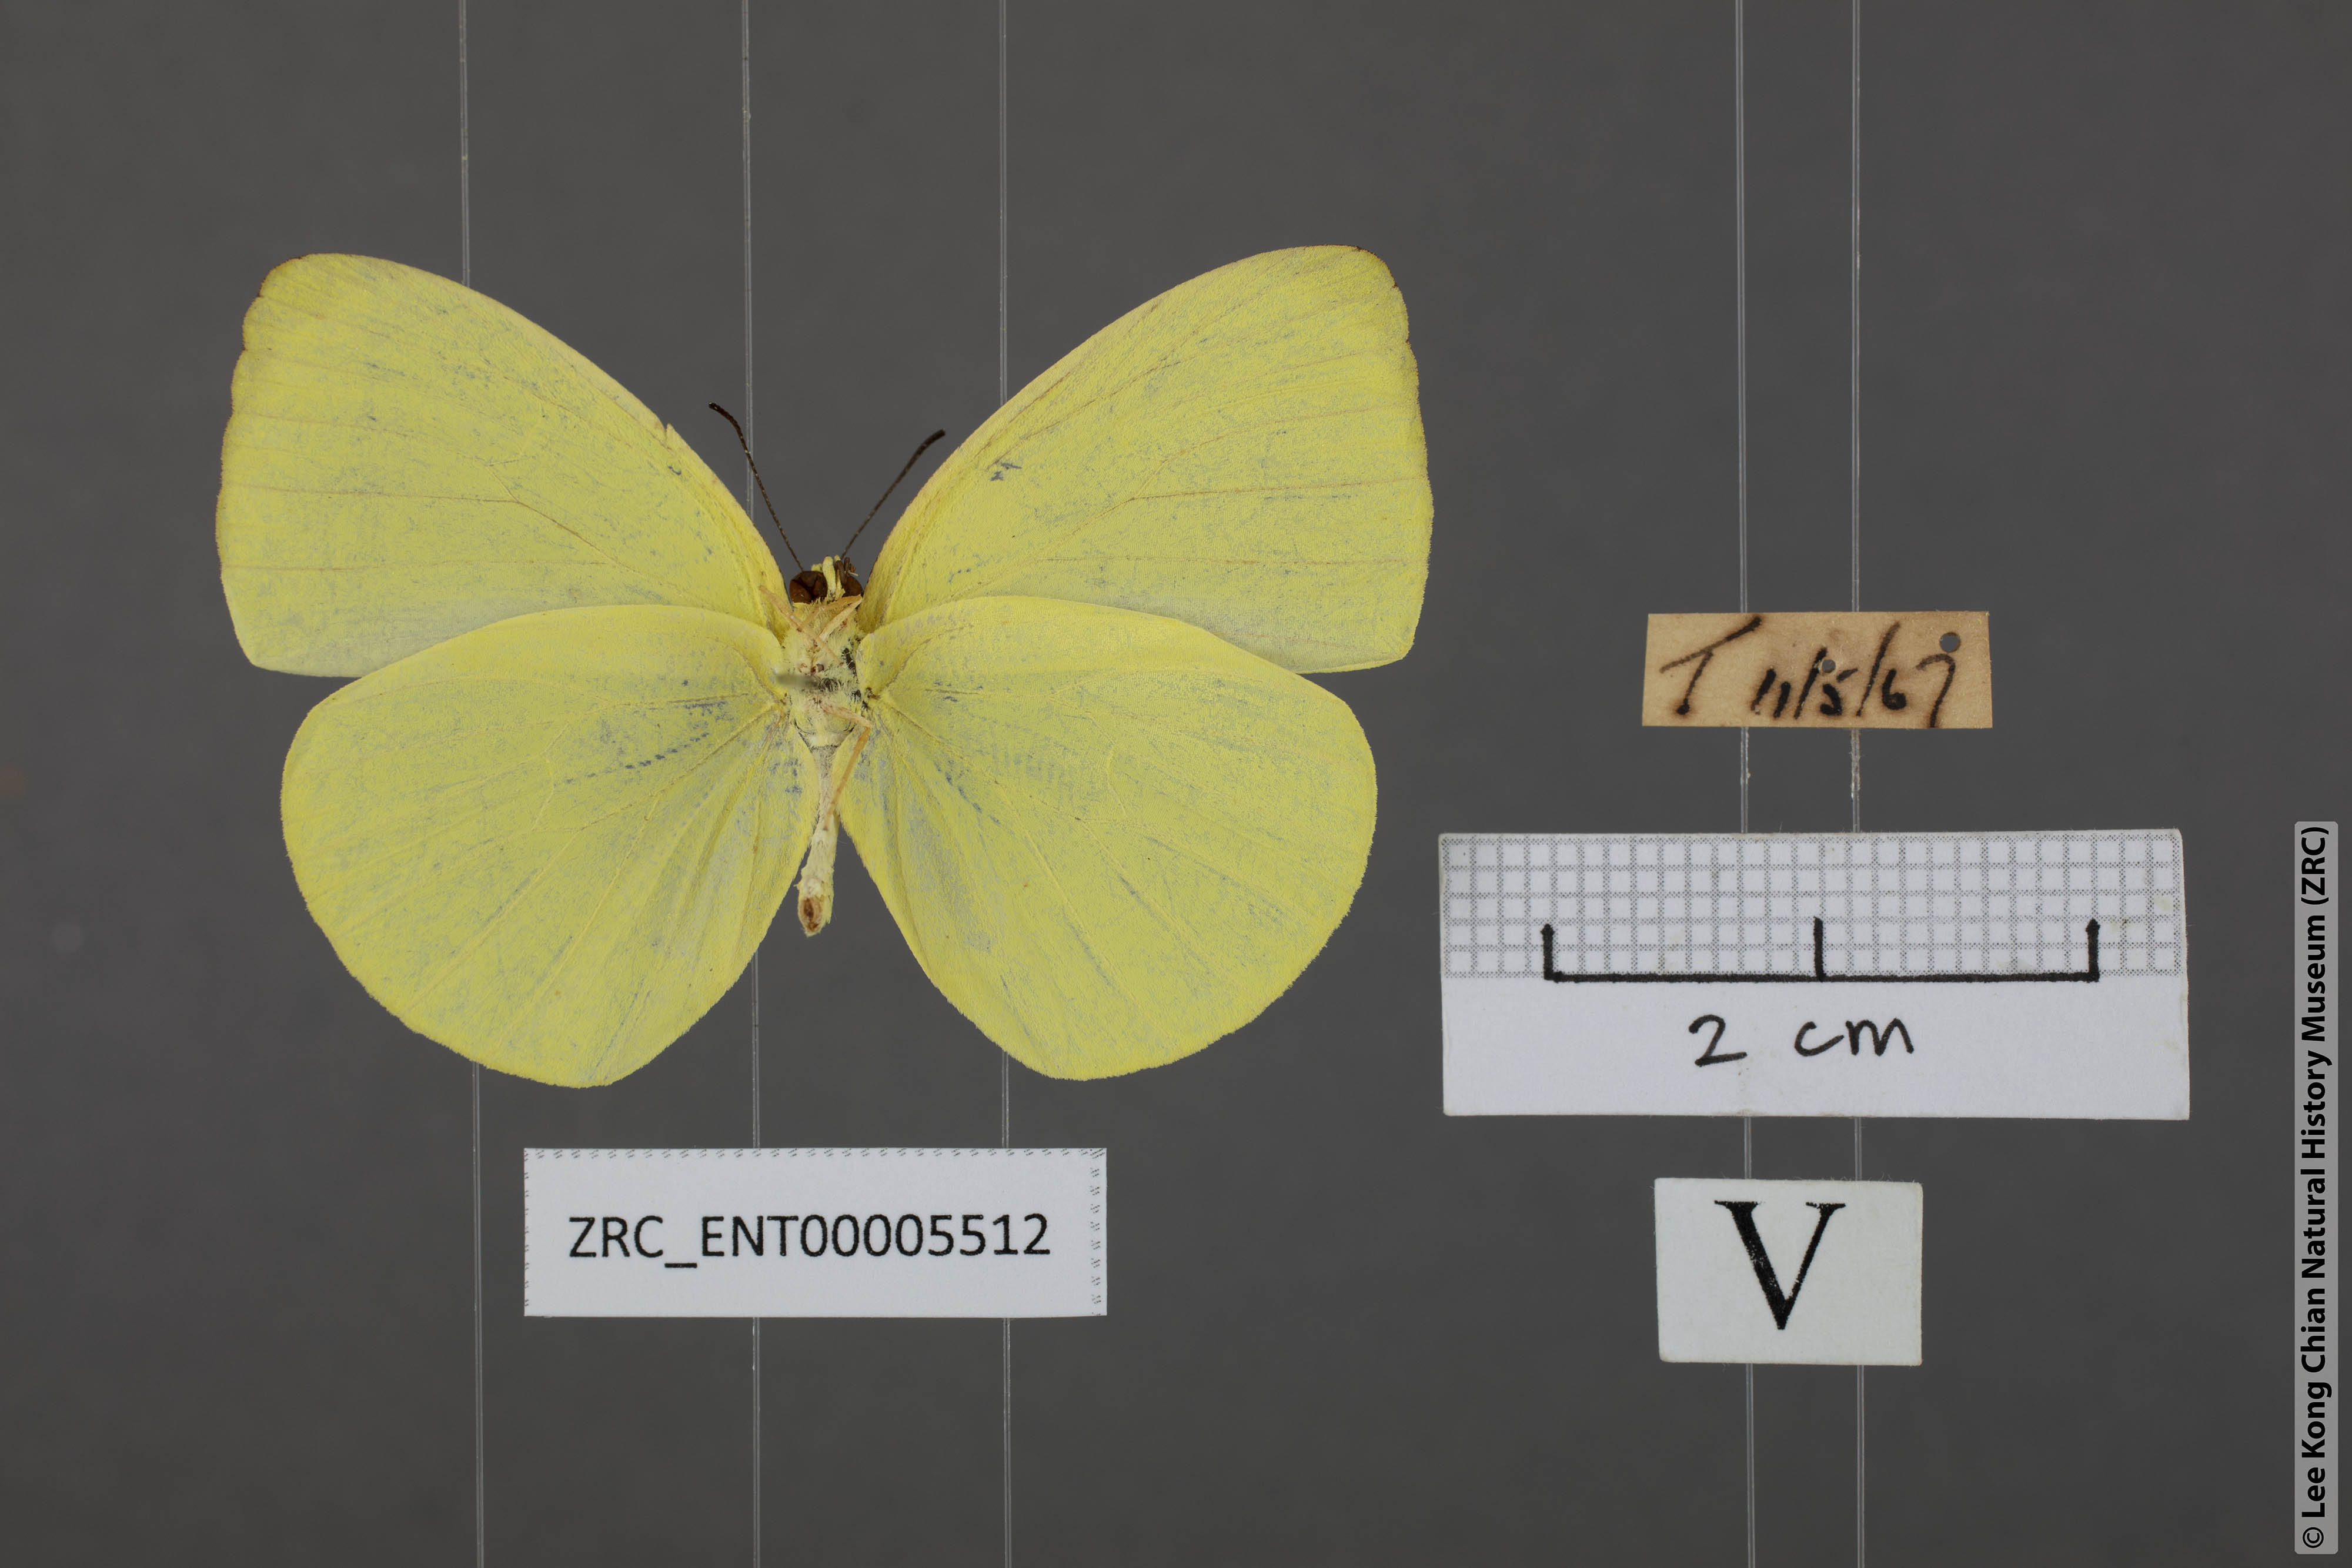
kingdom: Animalia
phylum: Arthropoda
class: Insecta
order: Lepidoptera
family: Pieridae
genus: Gandaca
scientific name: Gandaca harina
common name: Tree yellow
